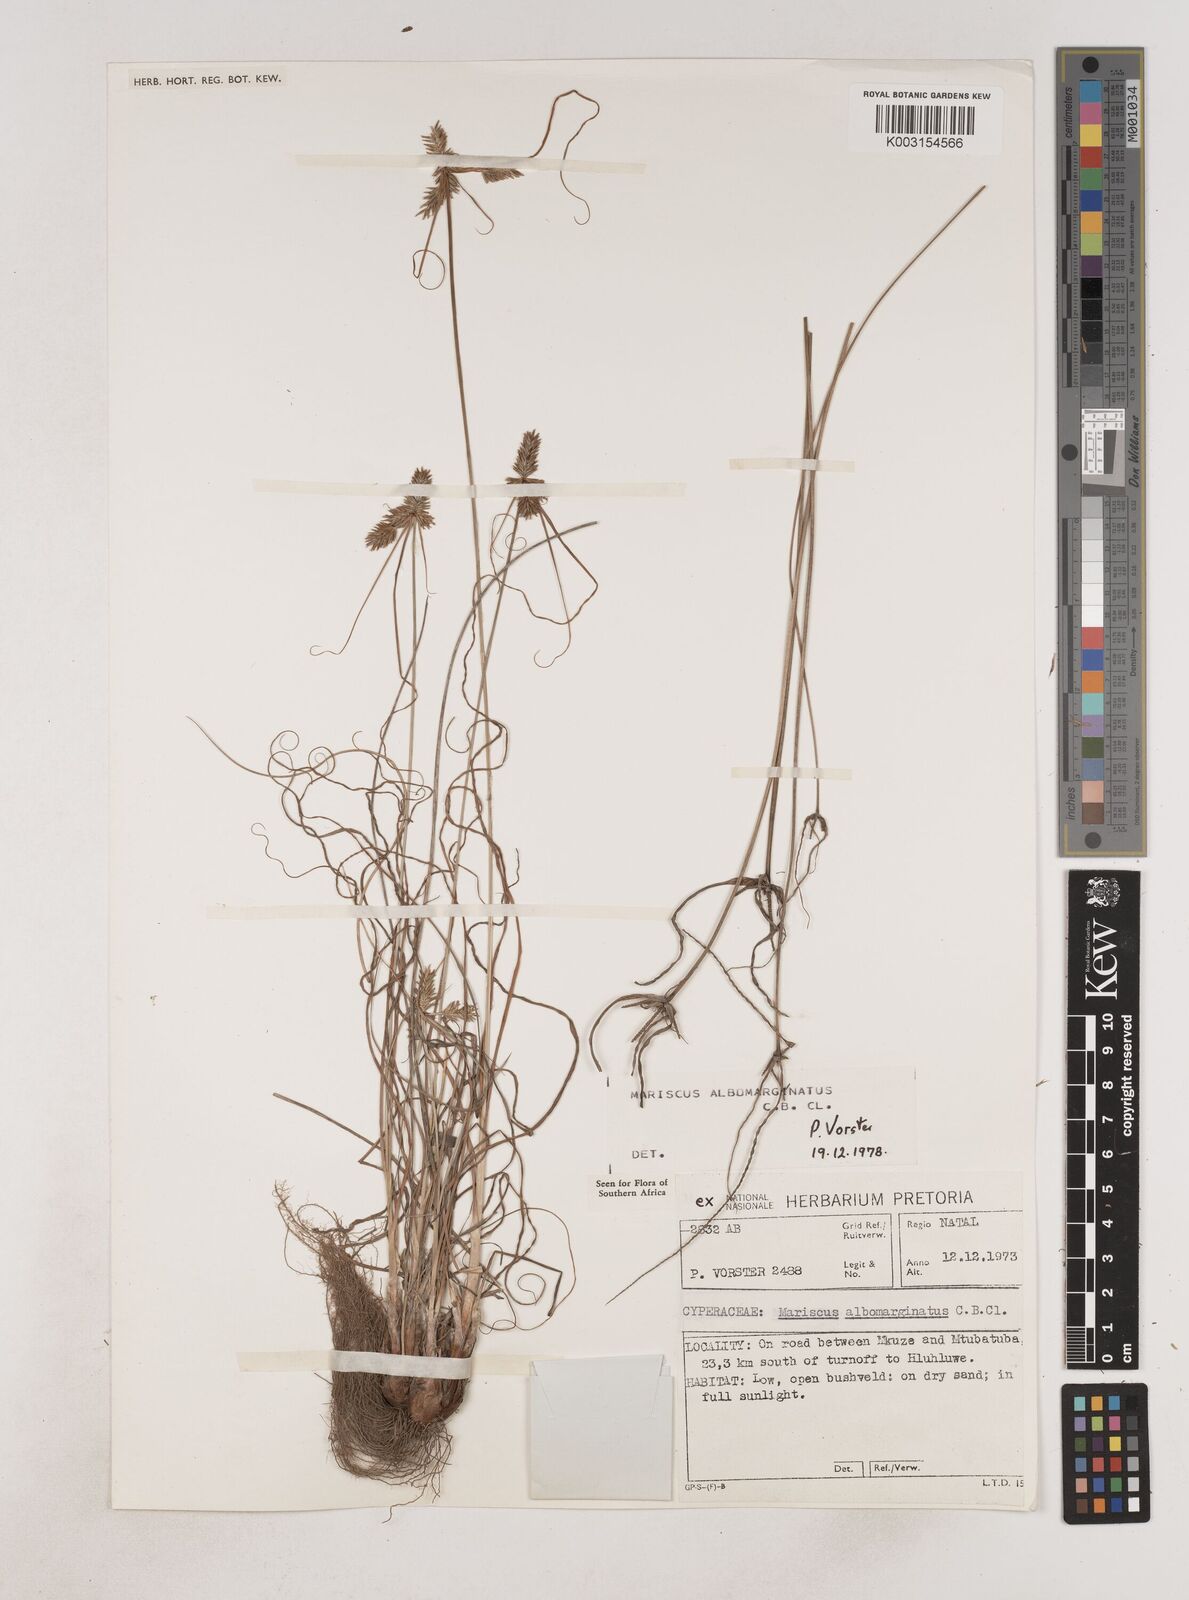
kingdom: Plantae
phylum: Tracheophyta
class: Liliopsida
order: Poales
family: Cyperaceae
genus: Cyperus
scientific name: Cyperus indecorus
